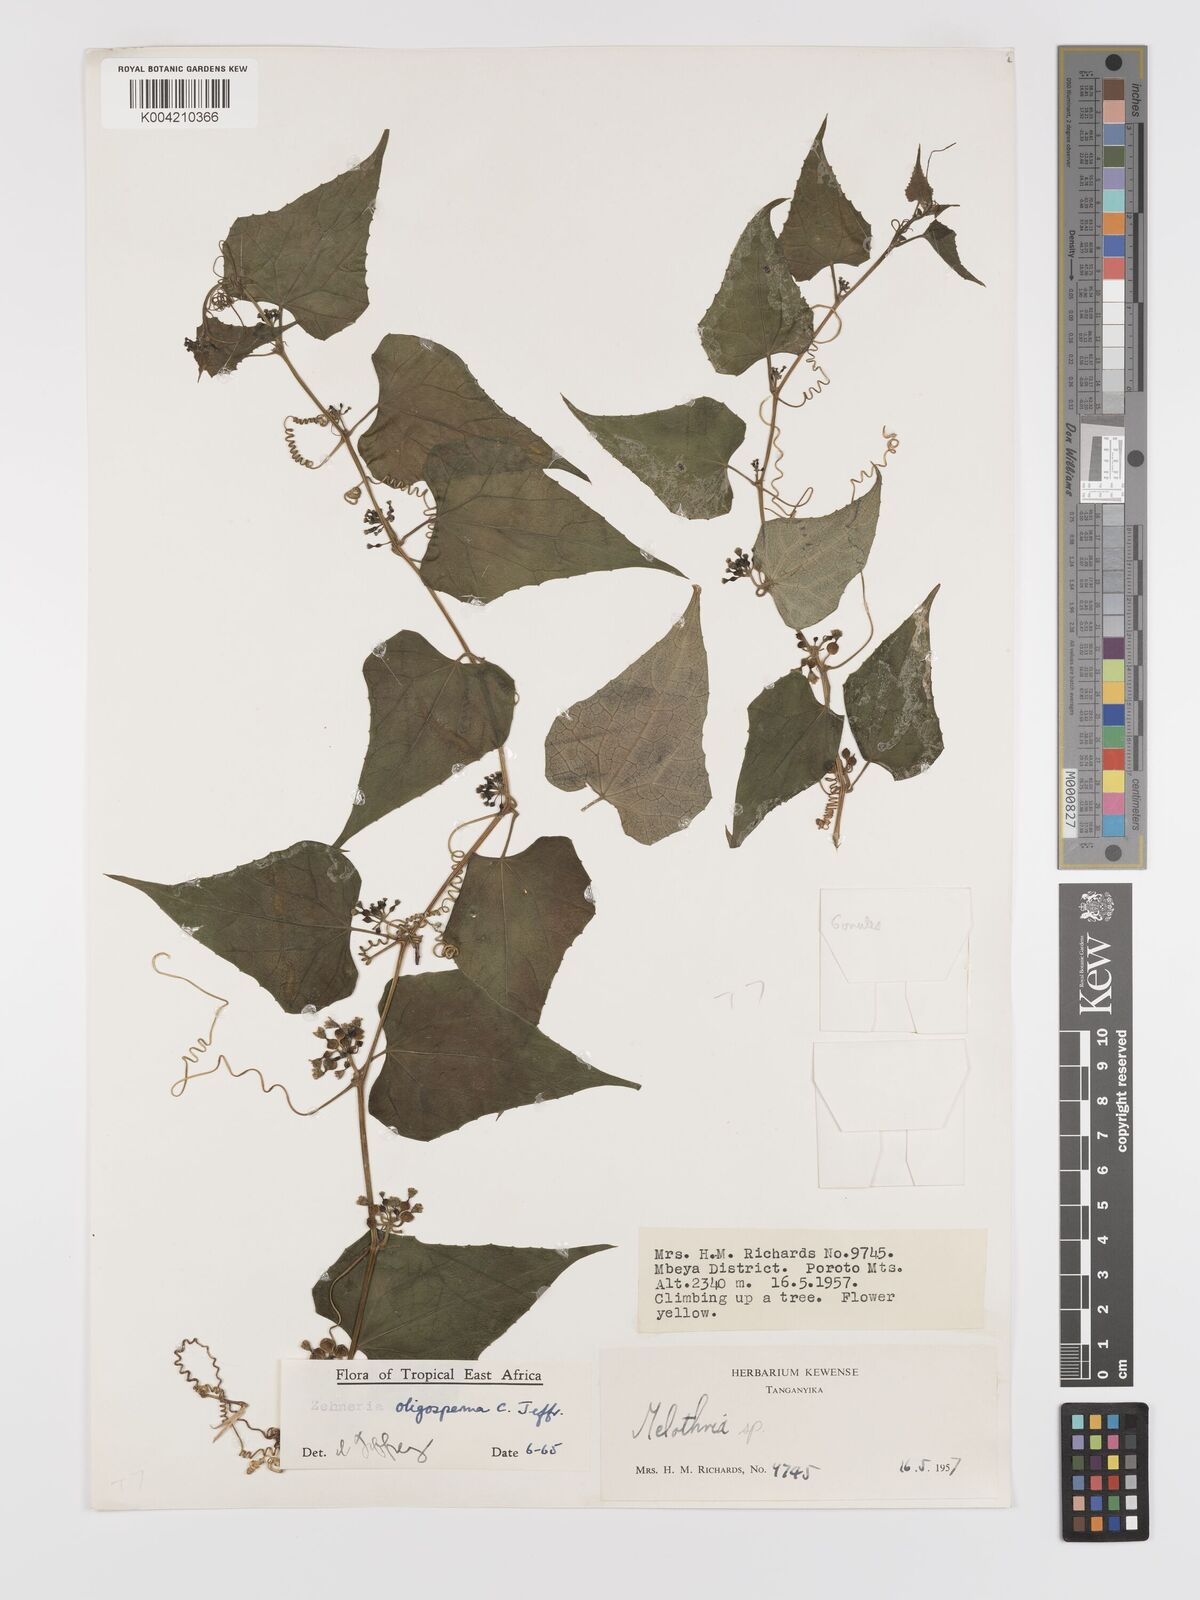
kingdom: Plantae
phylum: Tracheophyta
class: Magnoliopsida
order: Cucurbitales
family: Cucurbitaceae
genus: Zehneria
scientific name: Zehneria emirnensis
